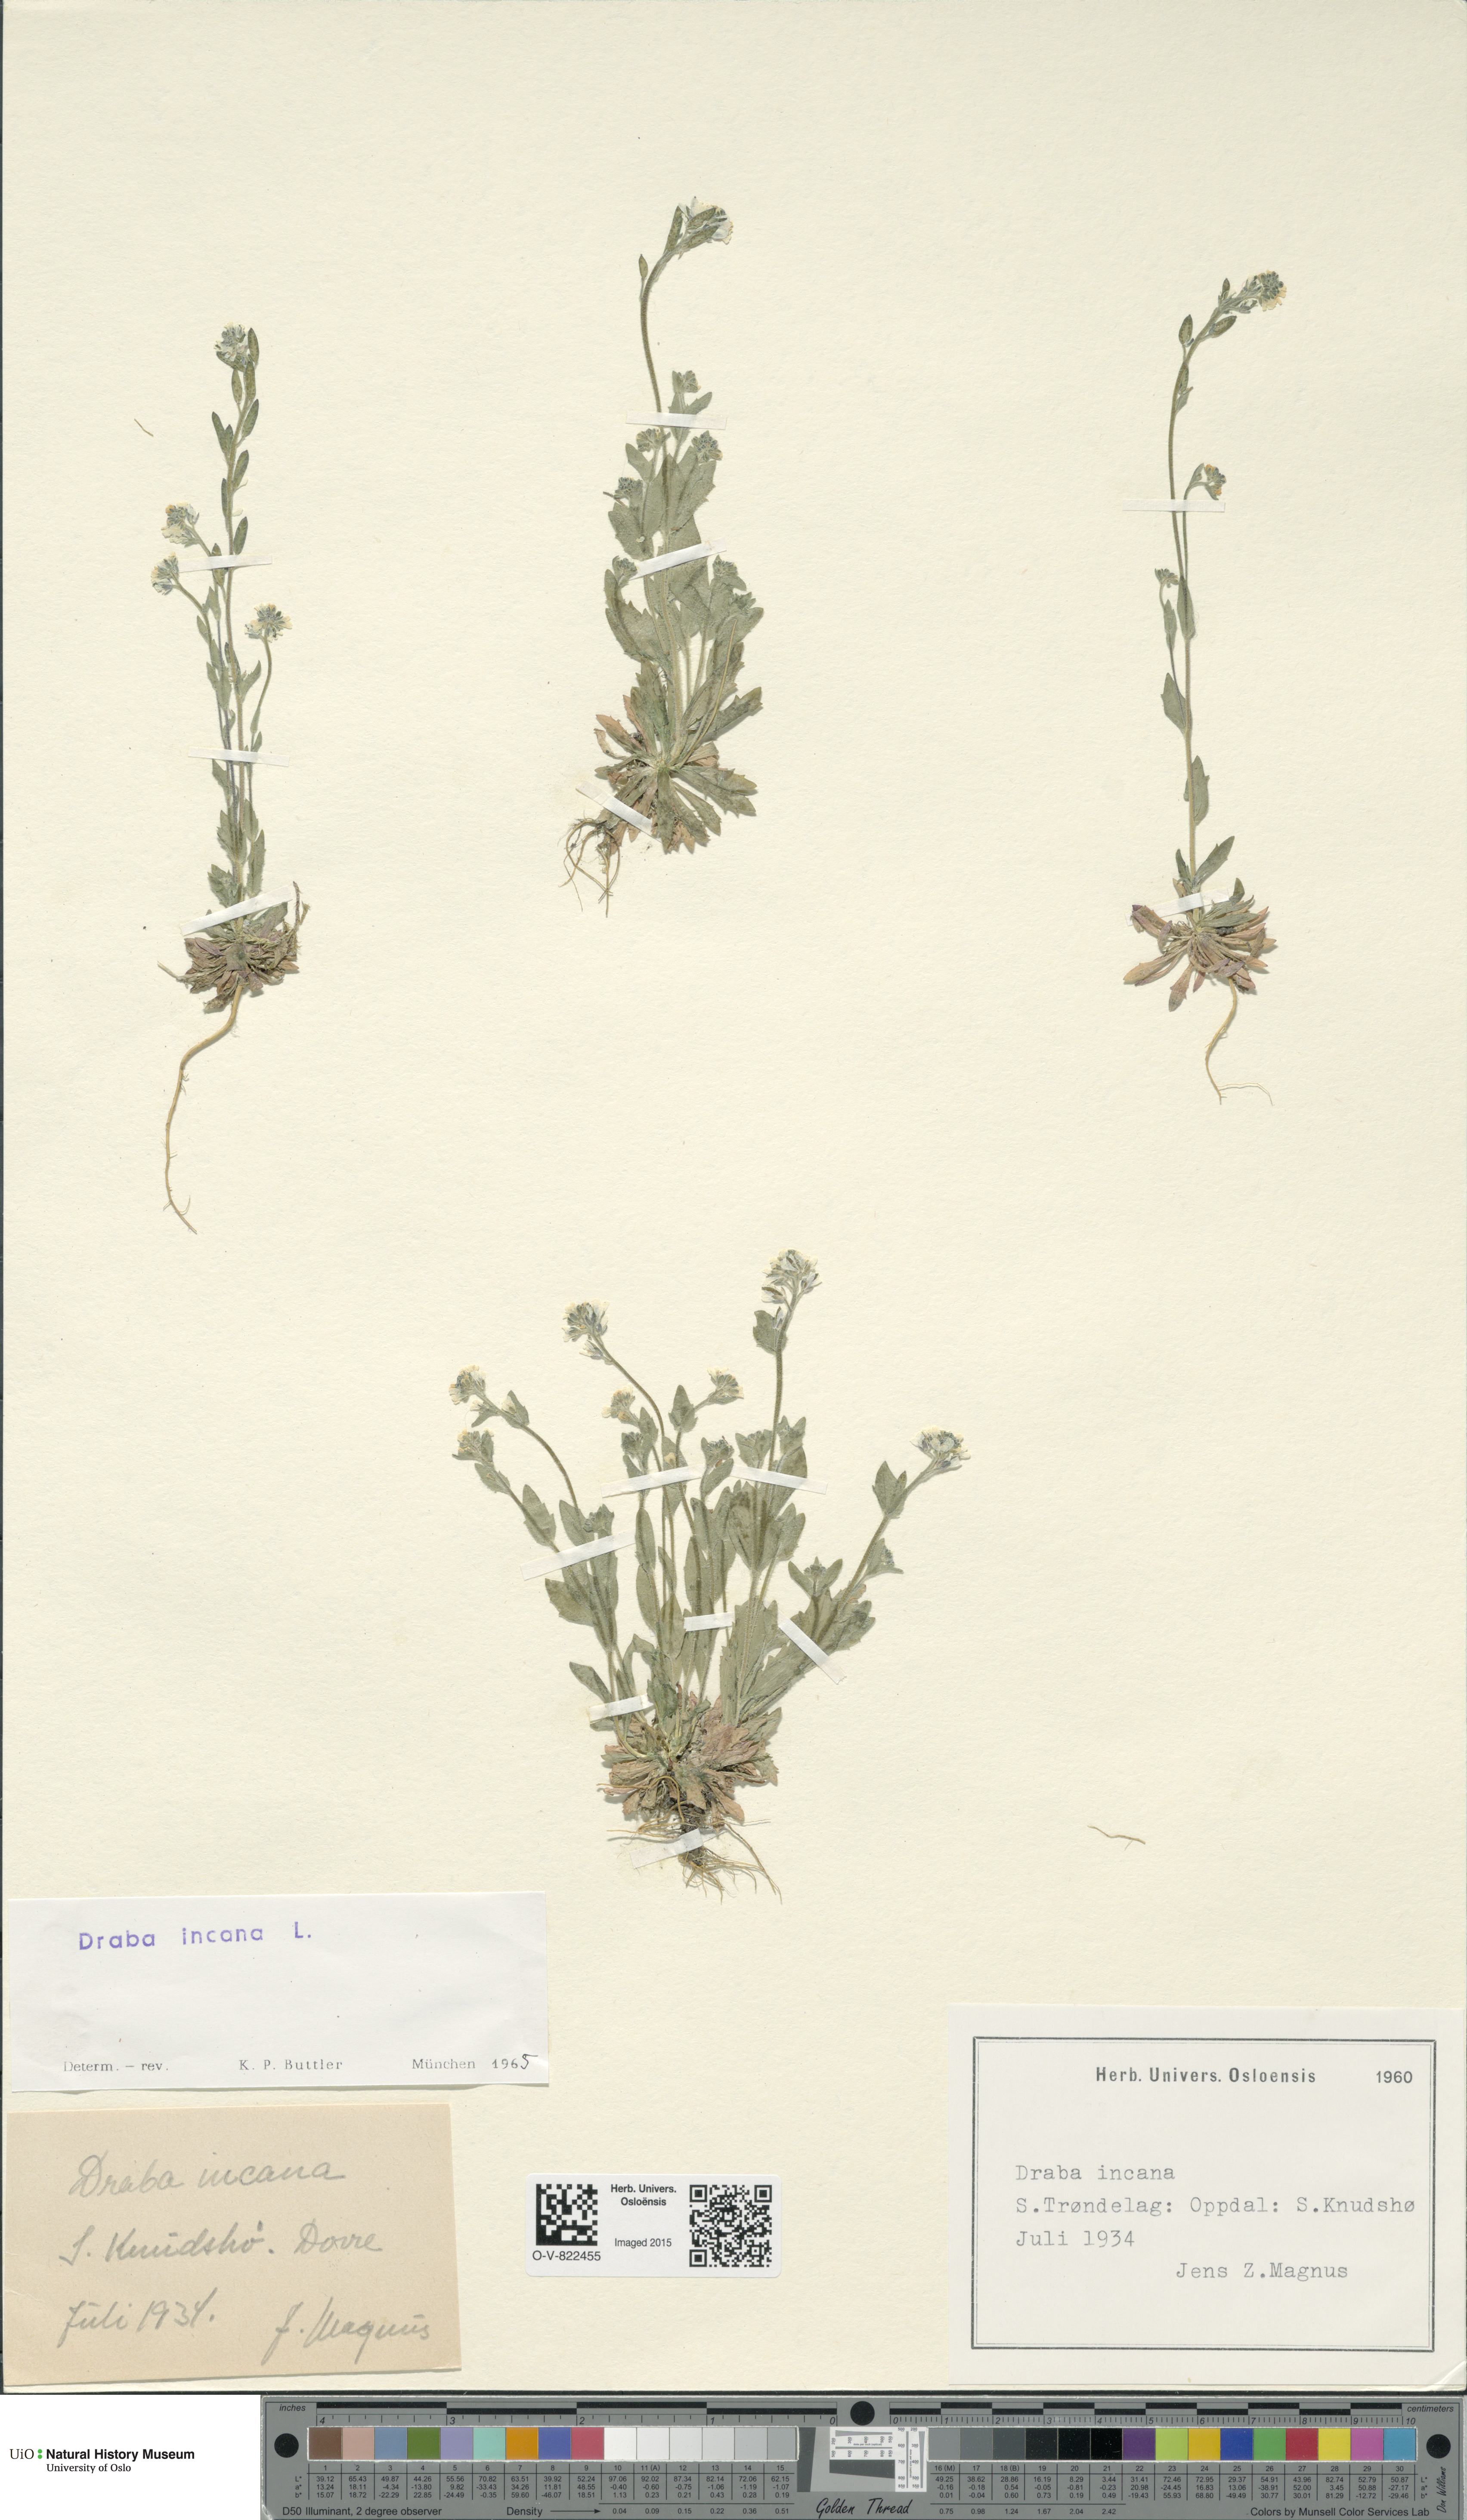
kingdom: Plantae
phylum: Tracheophyta
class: Magnoliopsida
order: Brassicales
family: Brassicaceae
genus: Draba
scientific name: Draba incana
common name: Hoary whitlow-grass
